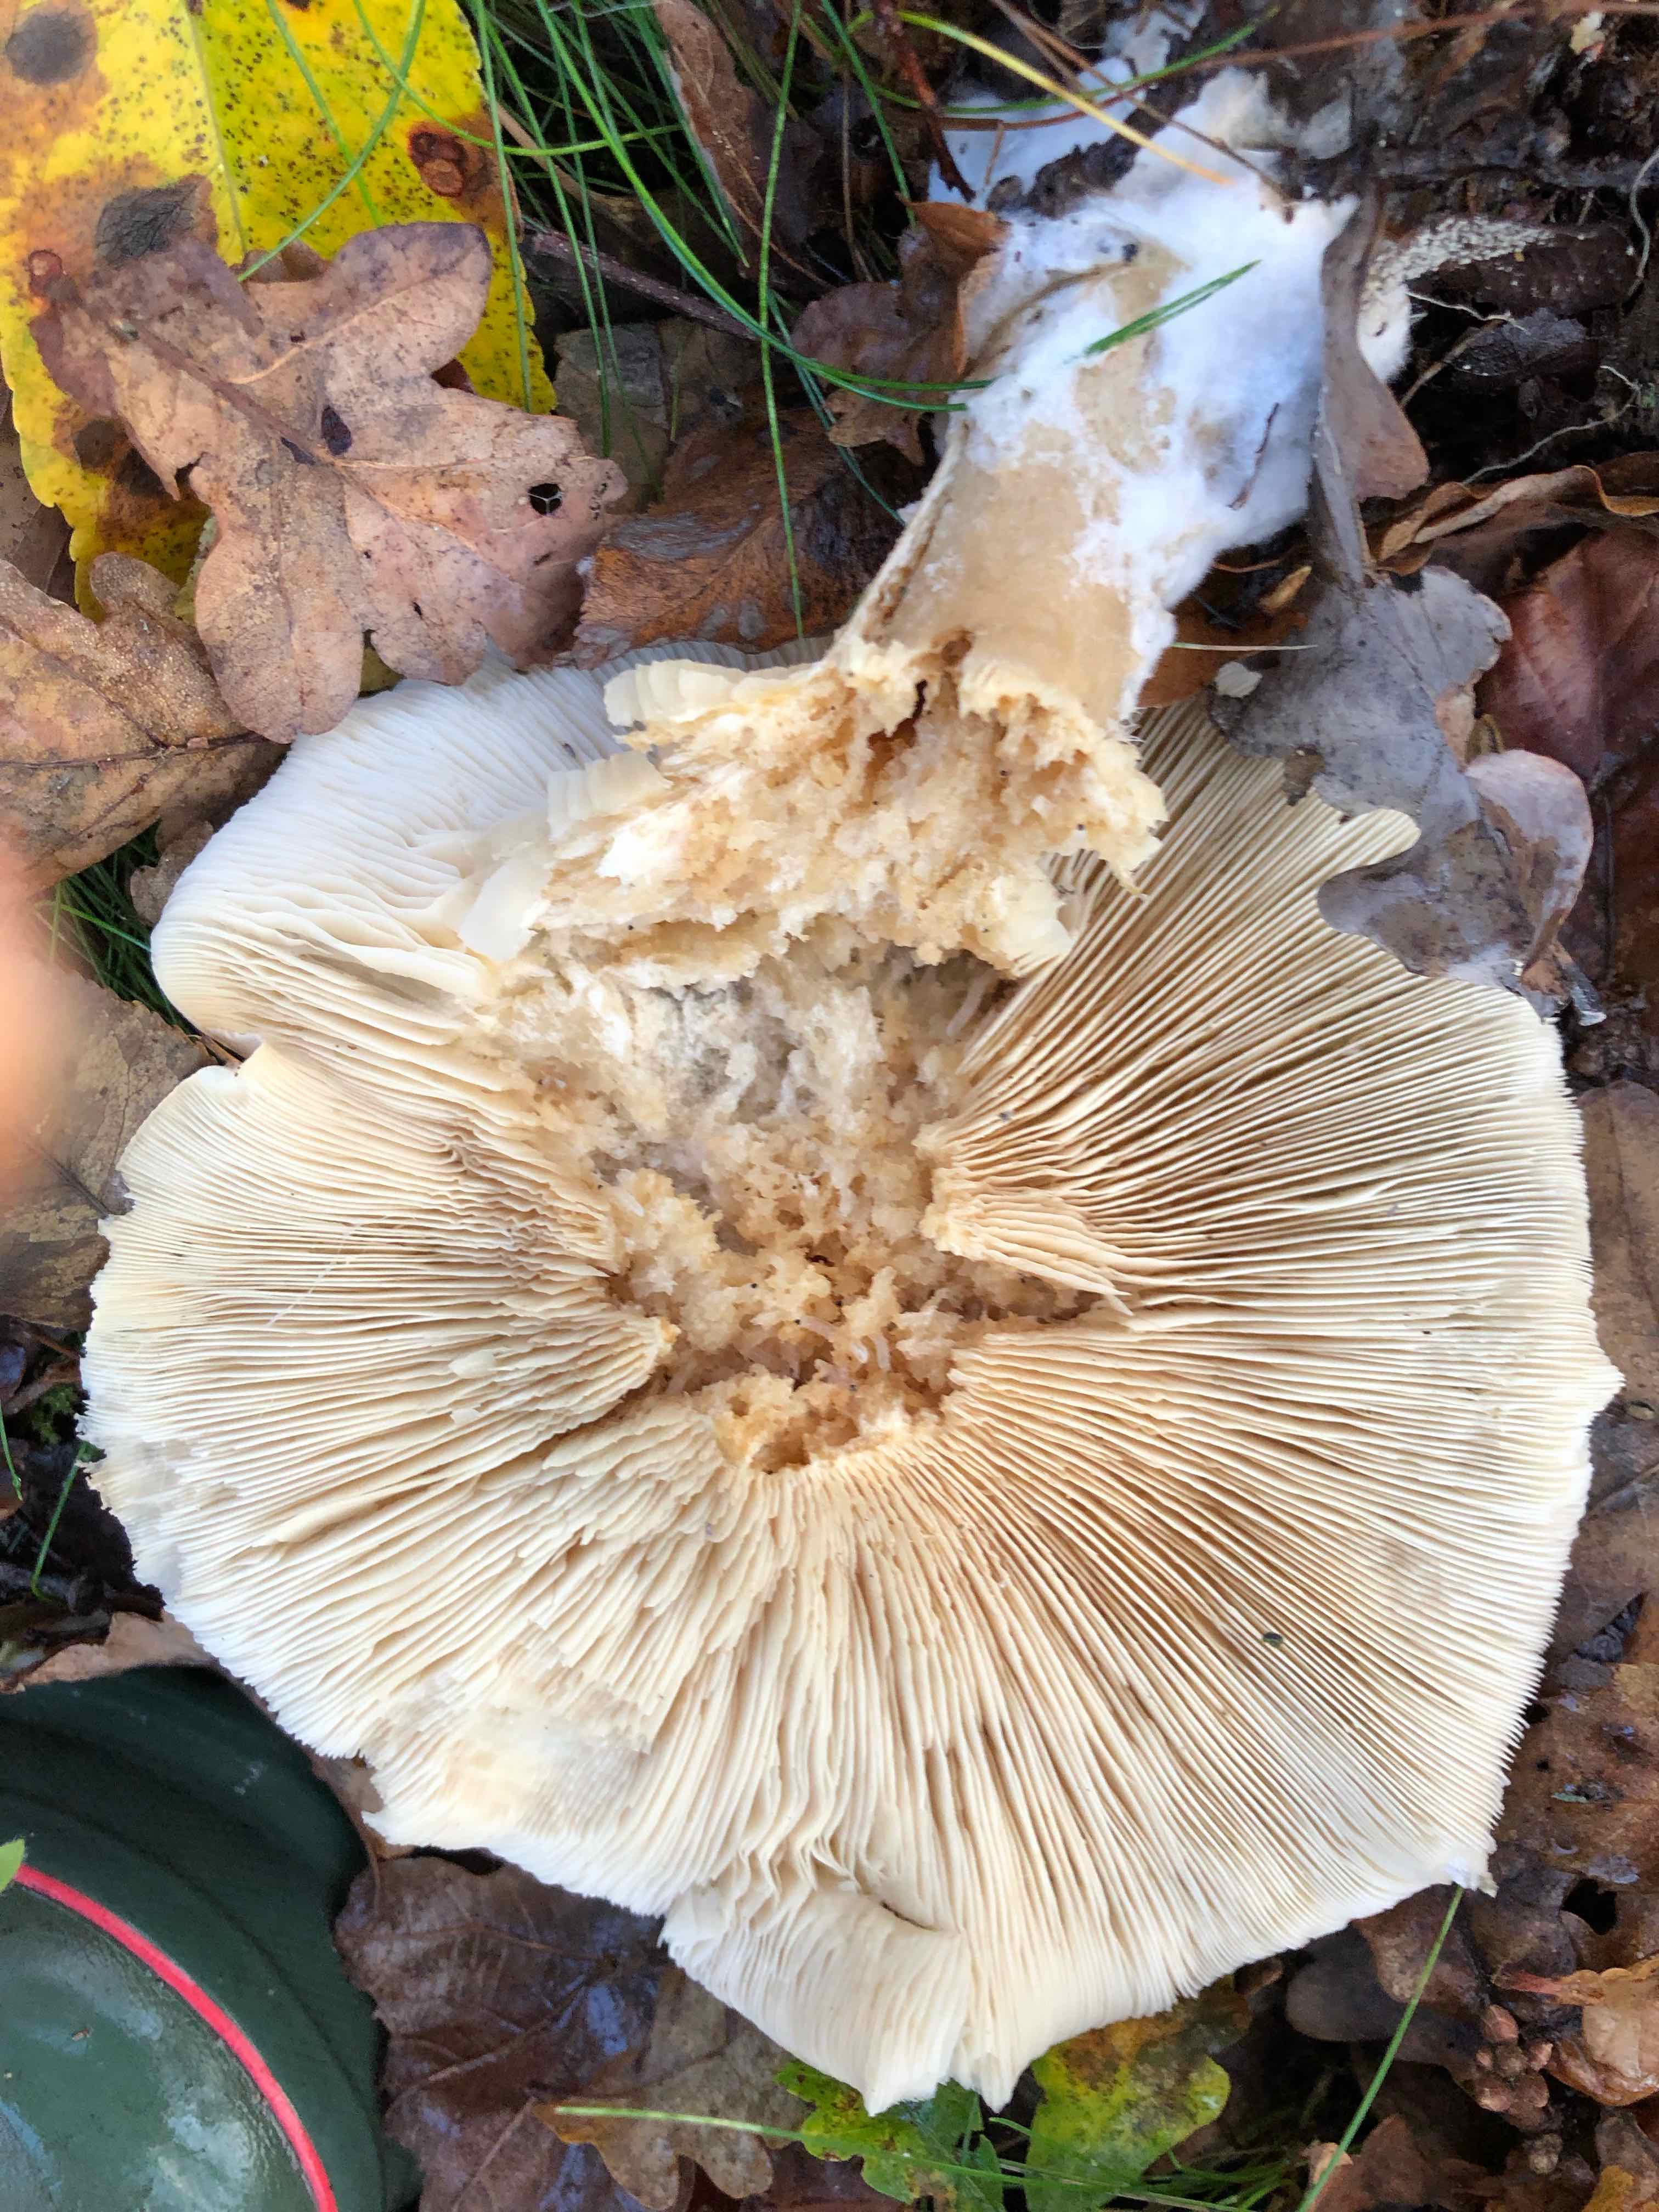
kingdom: Fungi
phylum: Basidiomycota
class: Agaricomycetes
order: Agaricales
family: Tricholomataceae
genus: Clitocybe
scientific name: Clitocybe nebularis
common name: tåge-tragthat
